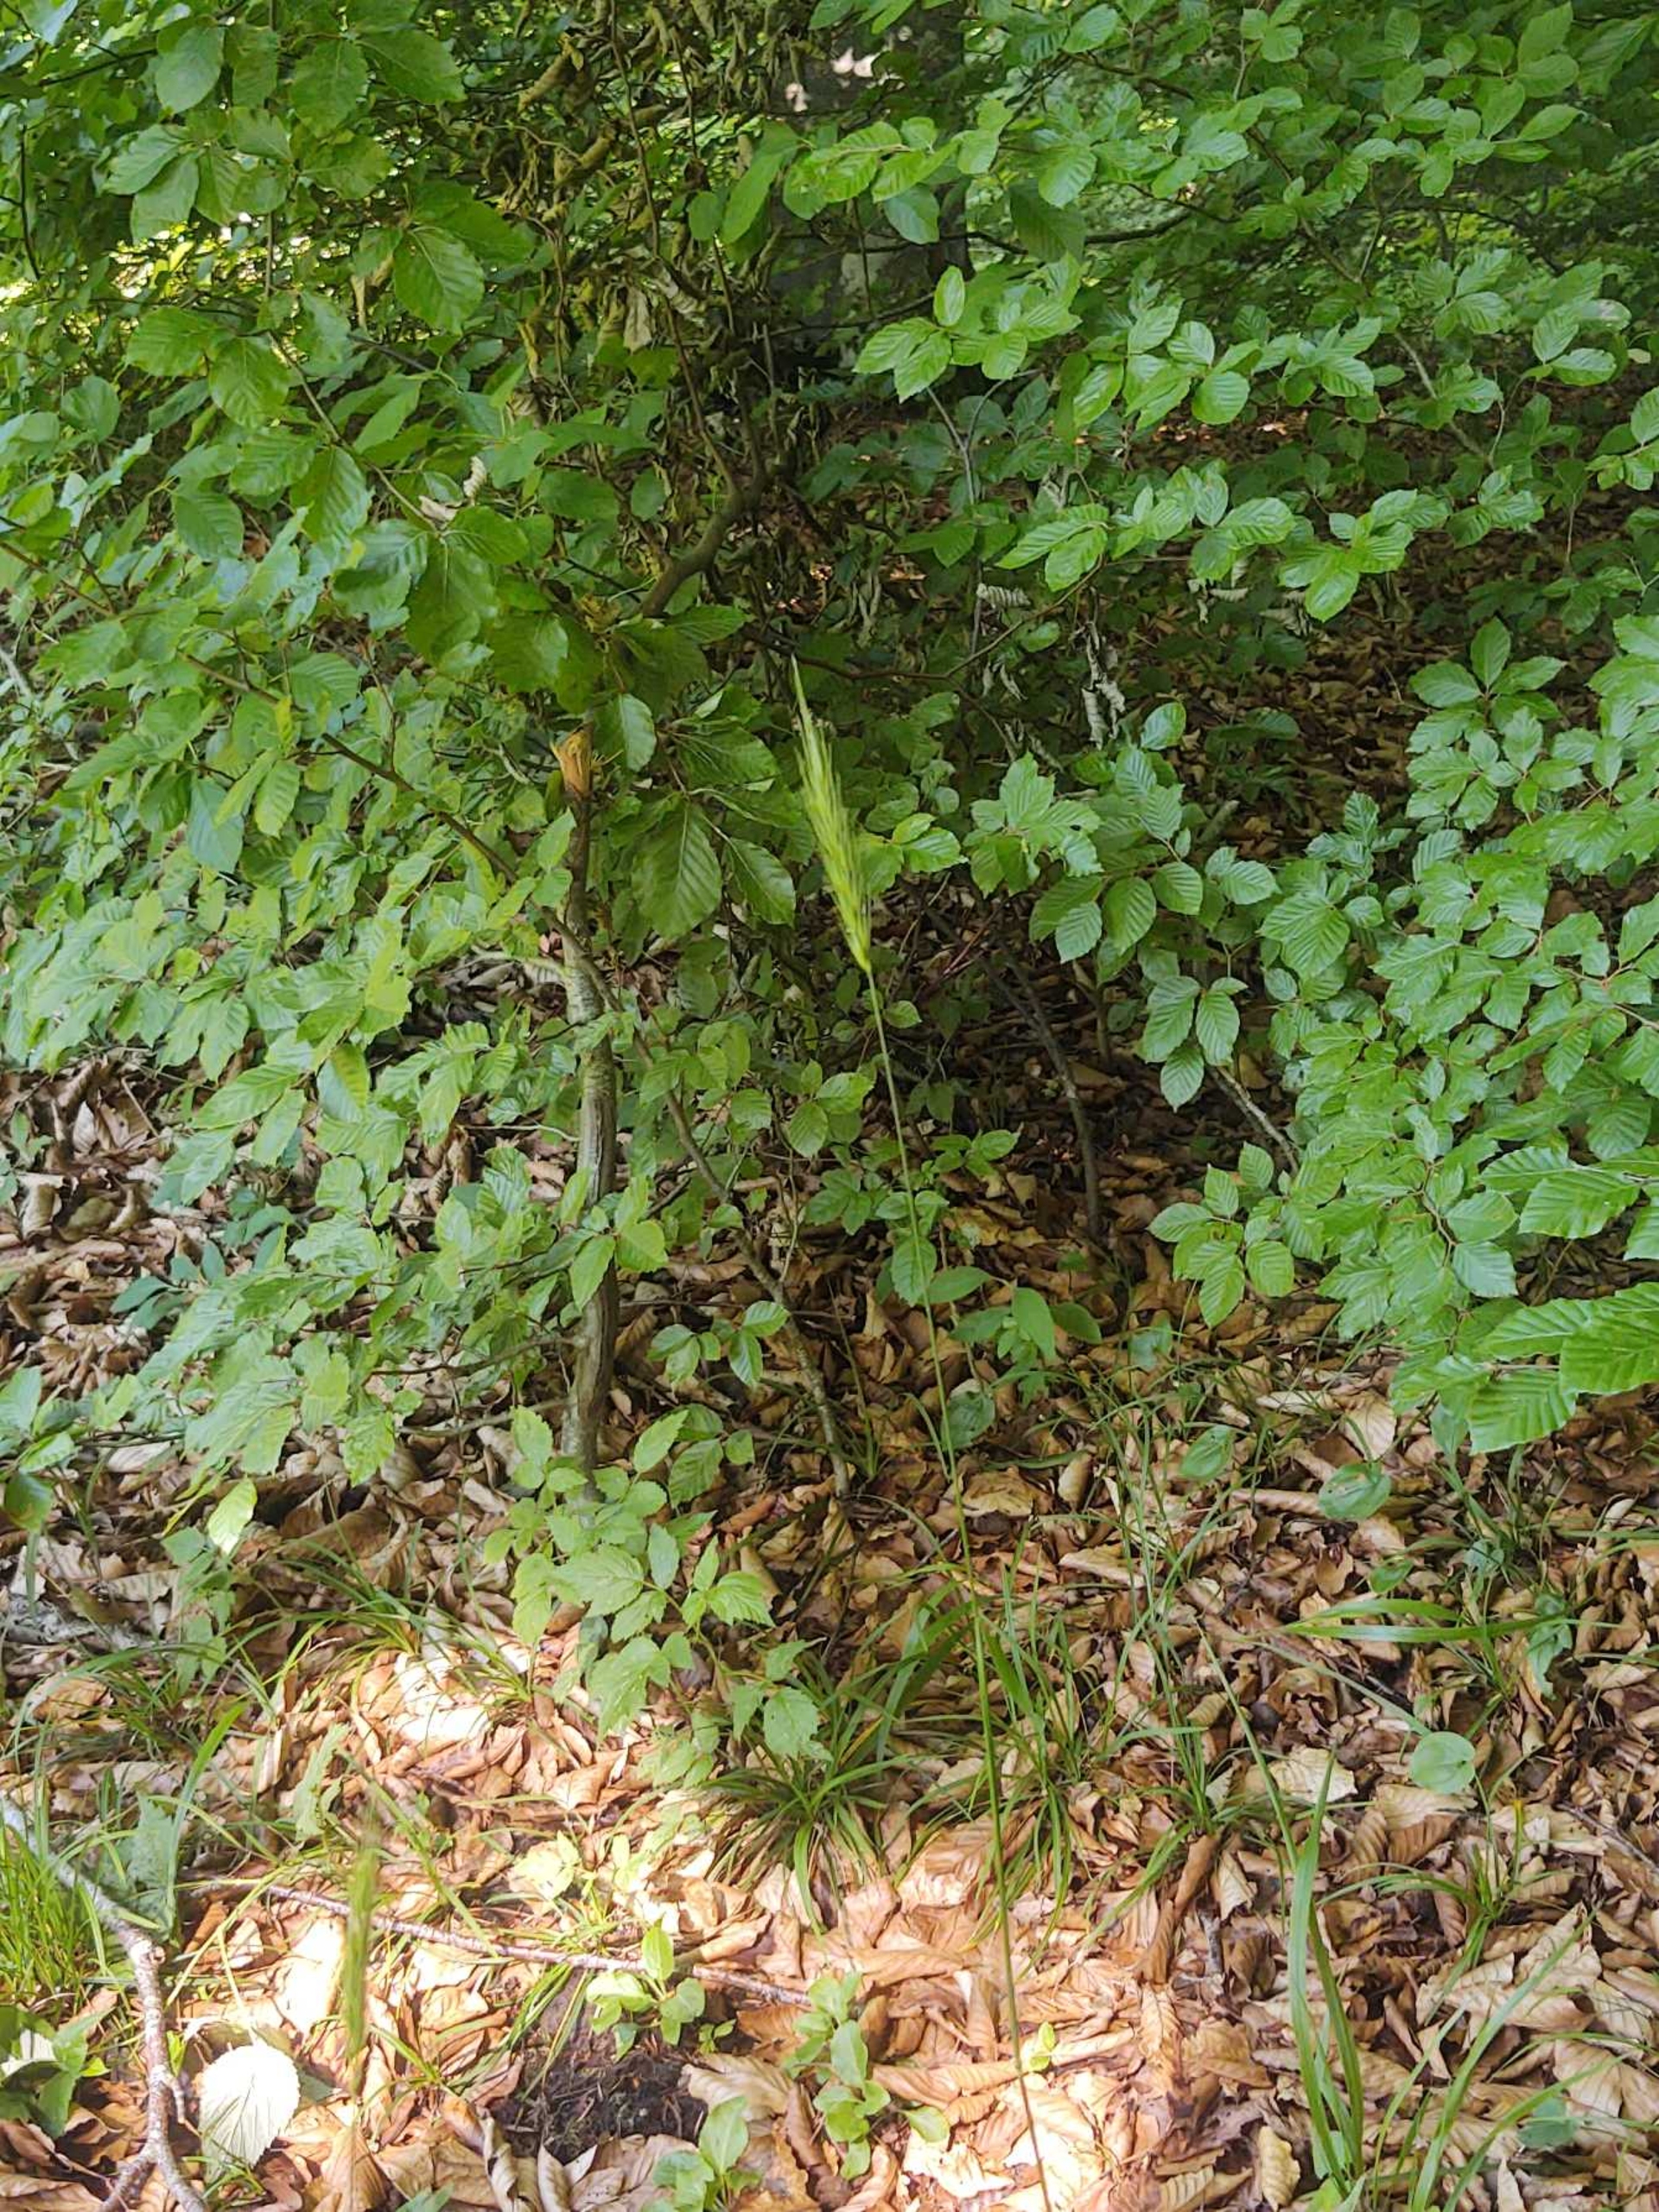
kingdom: Plantae
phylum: Tracheophyta
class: Liliopsida
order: Poales
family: Poaceae
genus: Hordelymus
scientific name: Hordelymus europaeus
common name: Skovbyg
